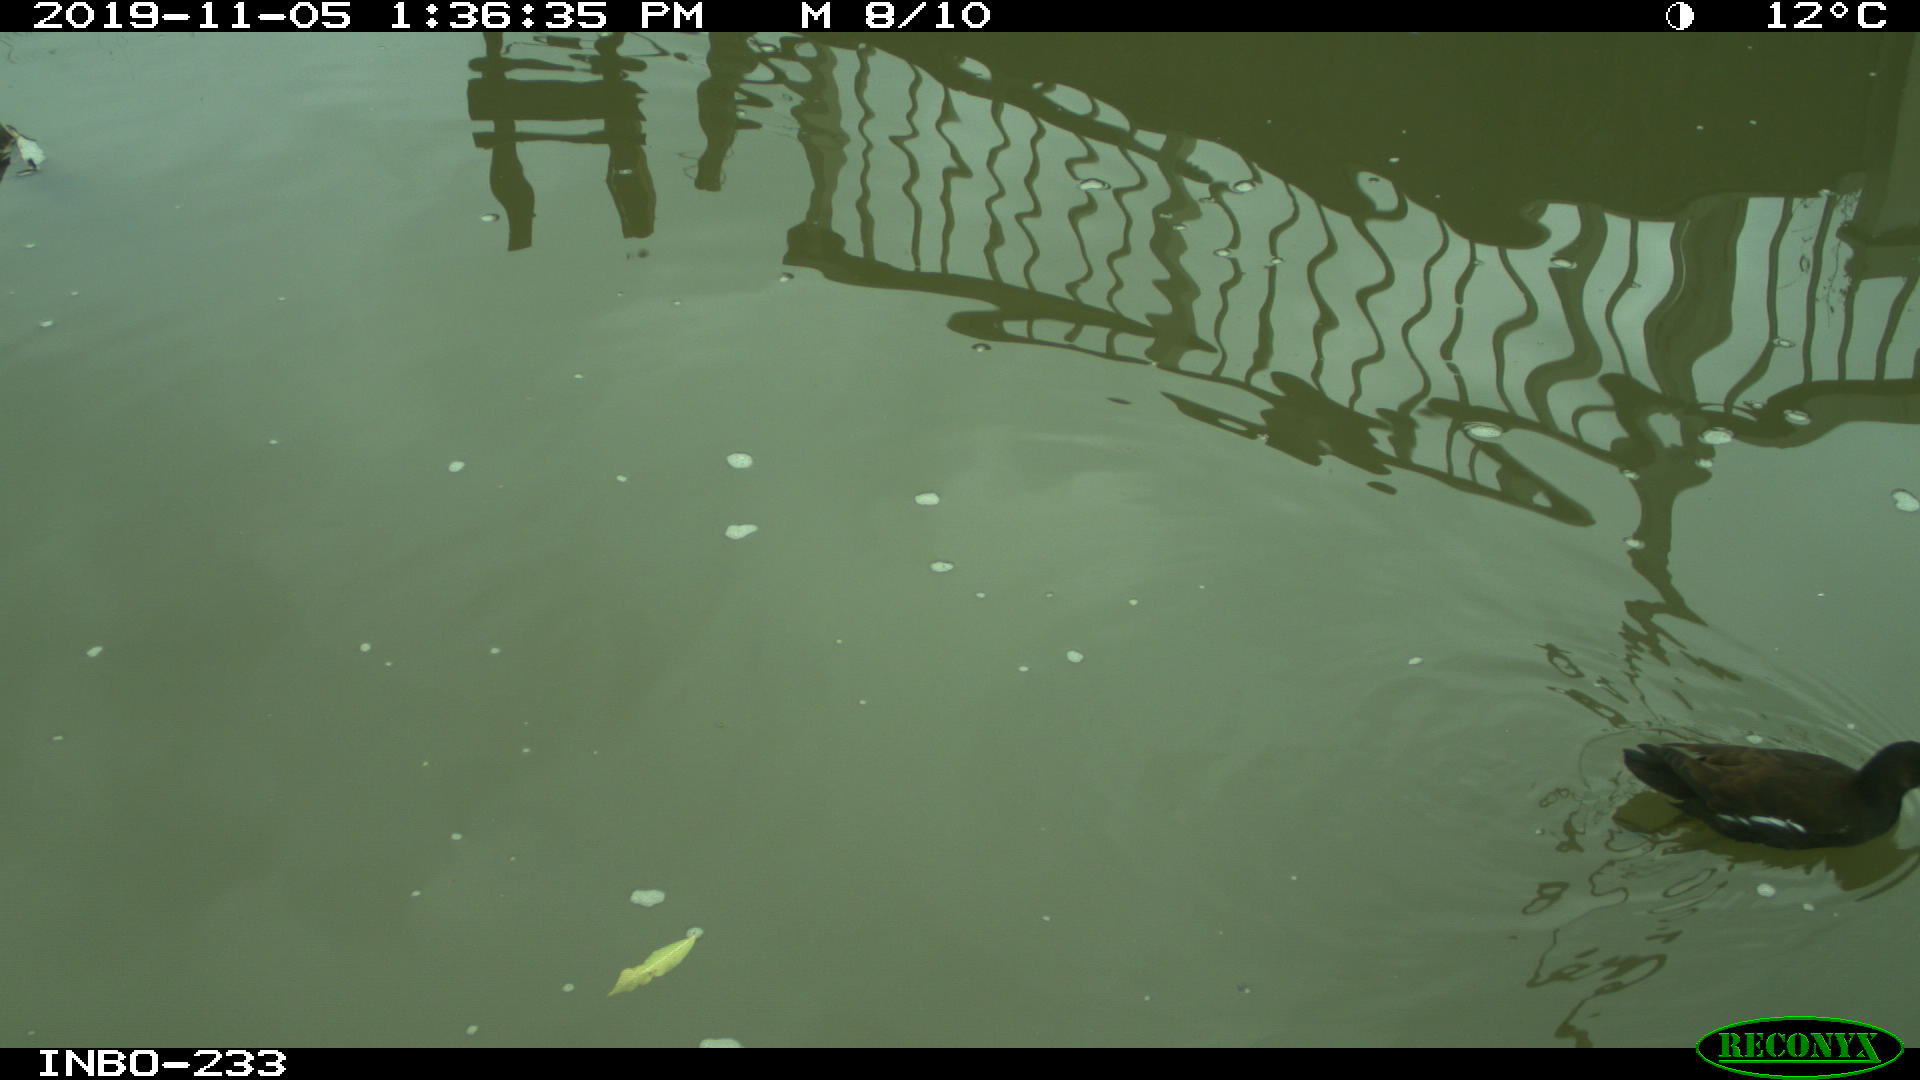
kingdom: Animalia
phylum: Chordata
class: Aves
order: Gruiformes
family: Rallidae
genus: Gallinula
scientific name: Gallinula chloropus
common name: Common moorhen
